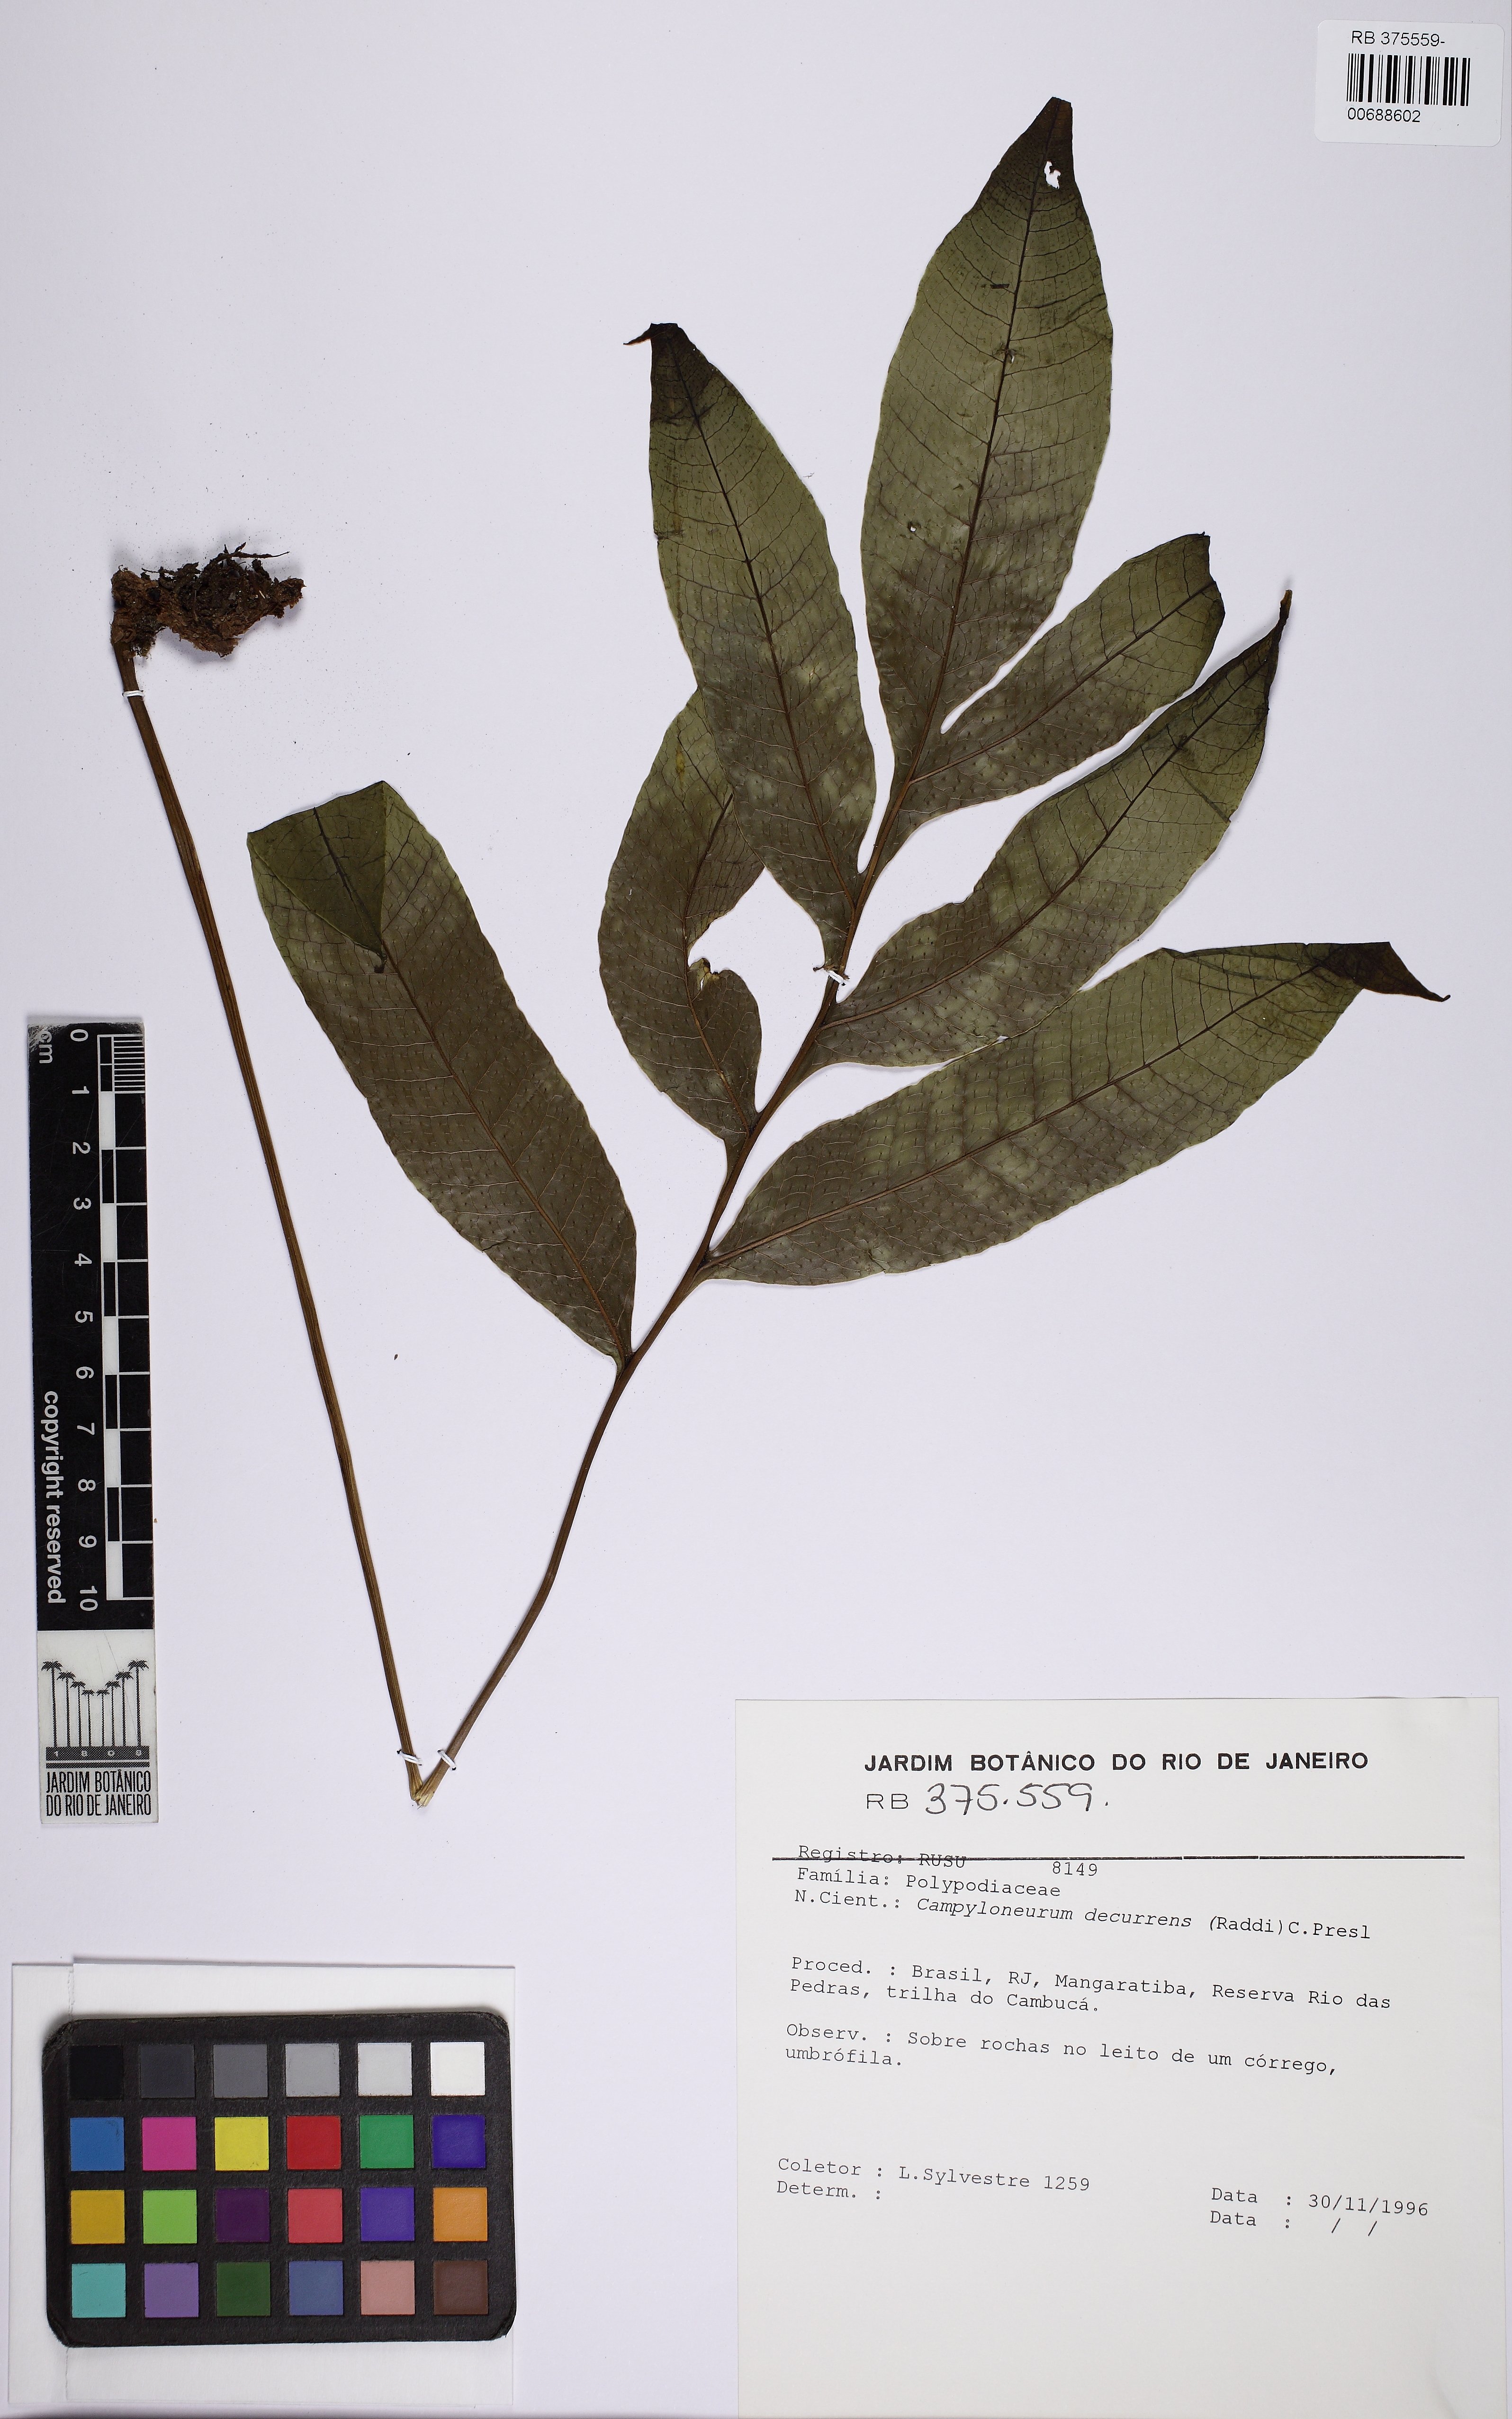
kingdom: Plantae
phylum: Tracheophyta
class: Polypodiopsida
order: Polypodiales
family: Polypodiaceae
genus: Campyloneurum
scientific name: Campyloneurum decurrens
